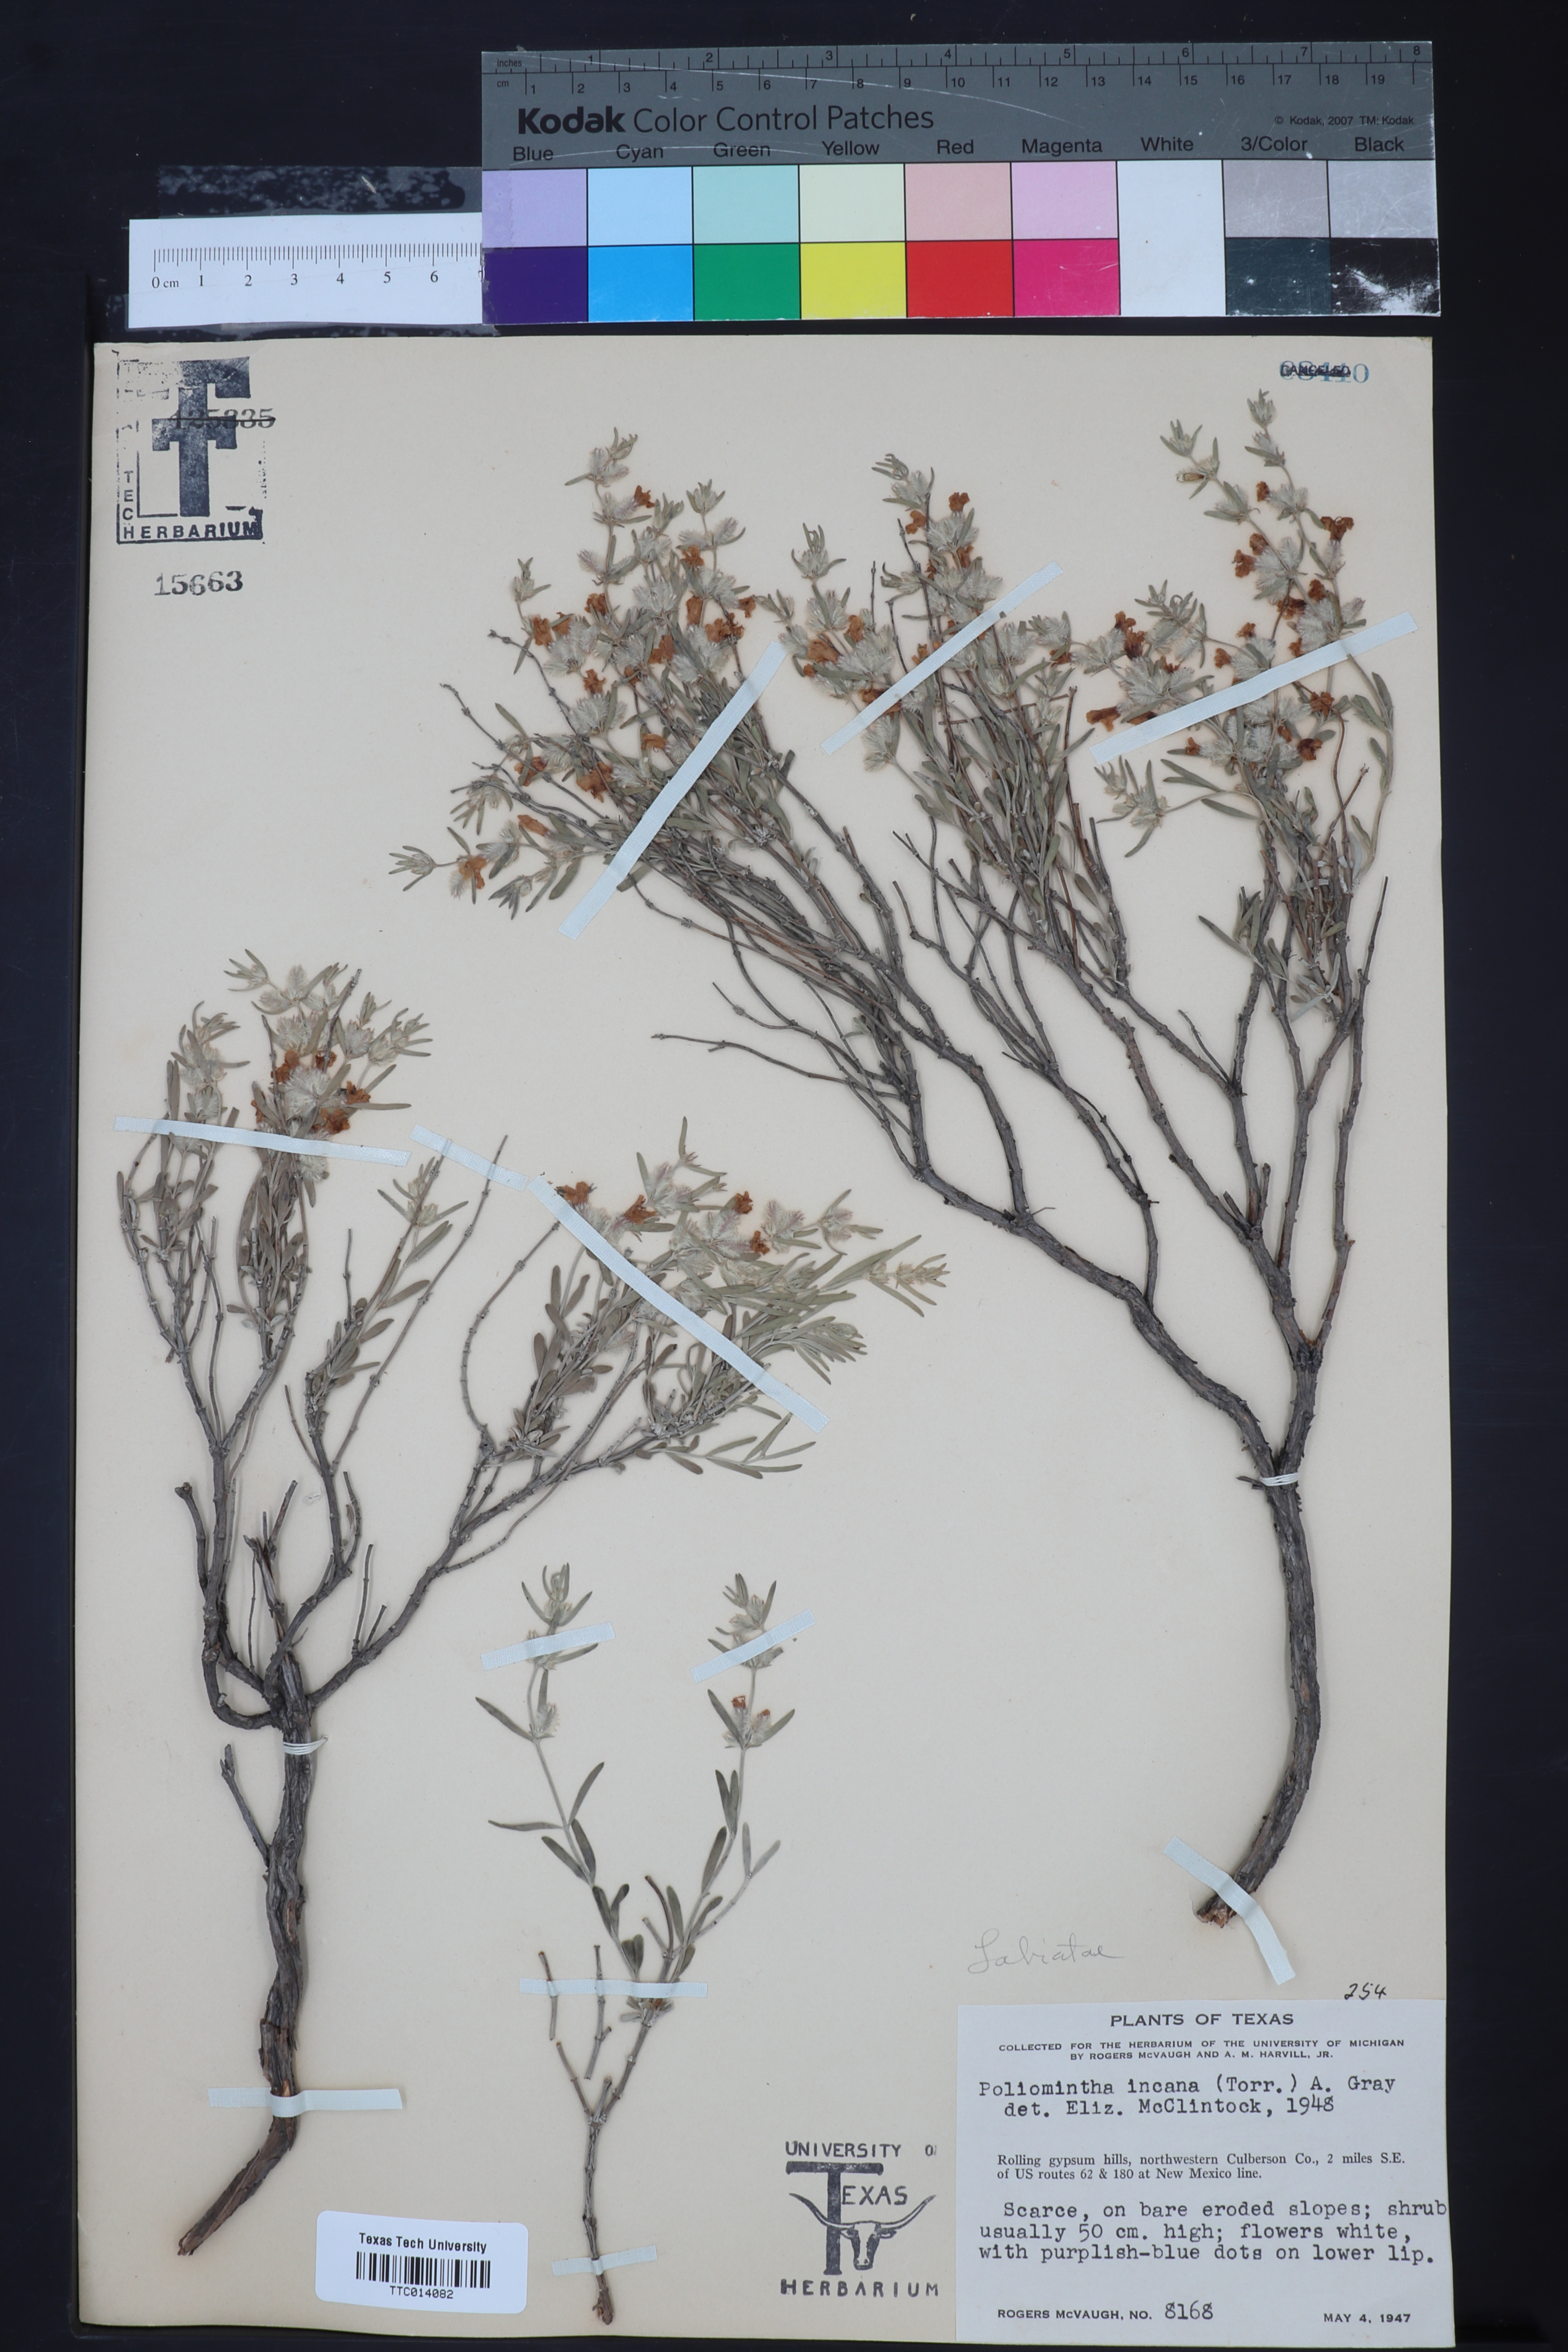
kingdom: Plantae
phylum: Tracheophyta
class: Magnoliopsida
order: Lamiales
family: Lamiaceae
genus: Poliomintha
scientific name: Poliomintha incana
